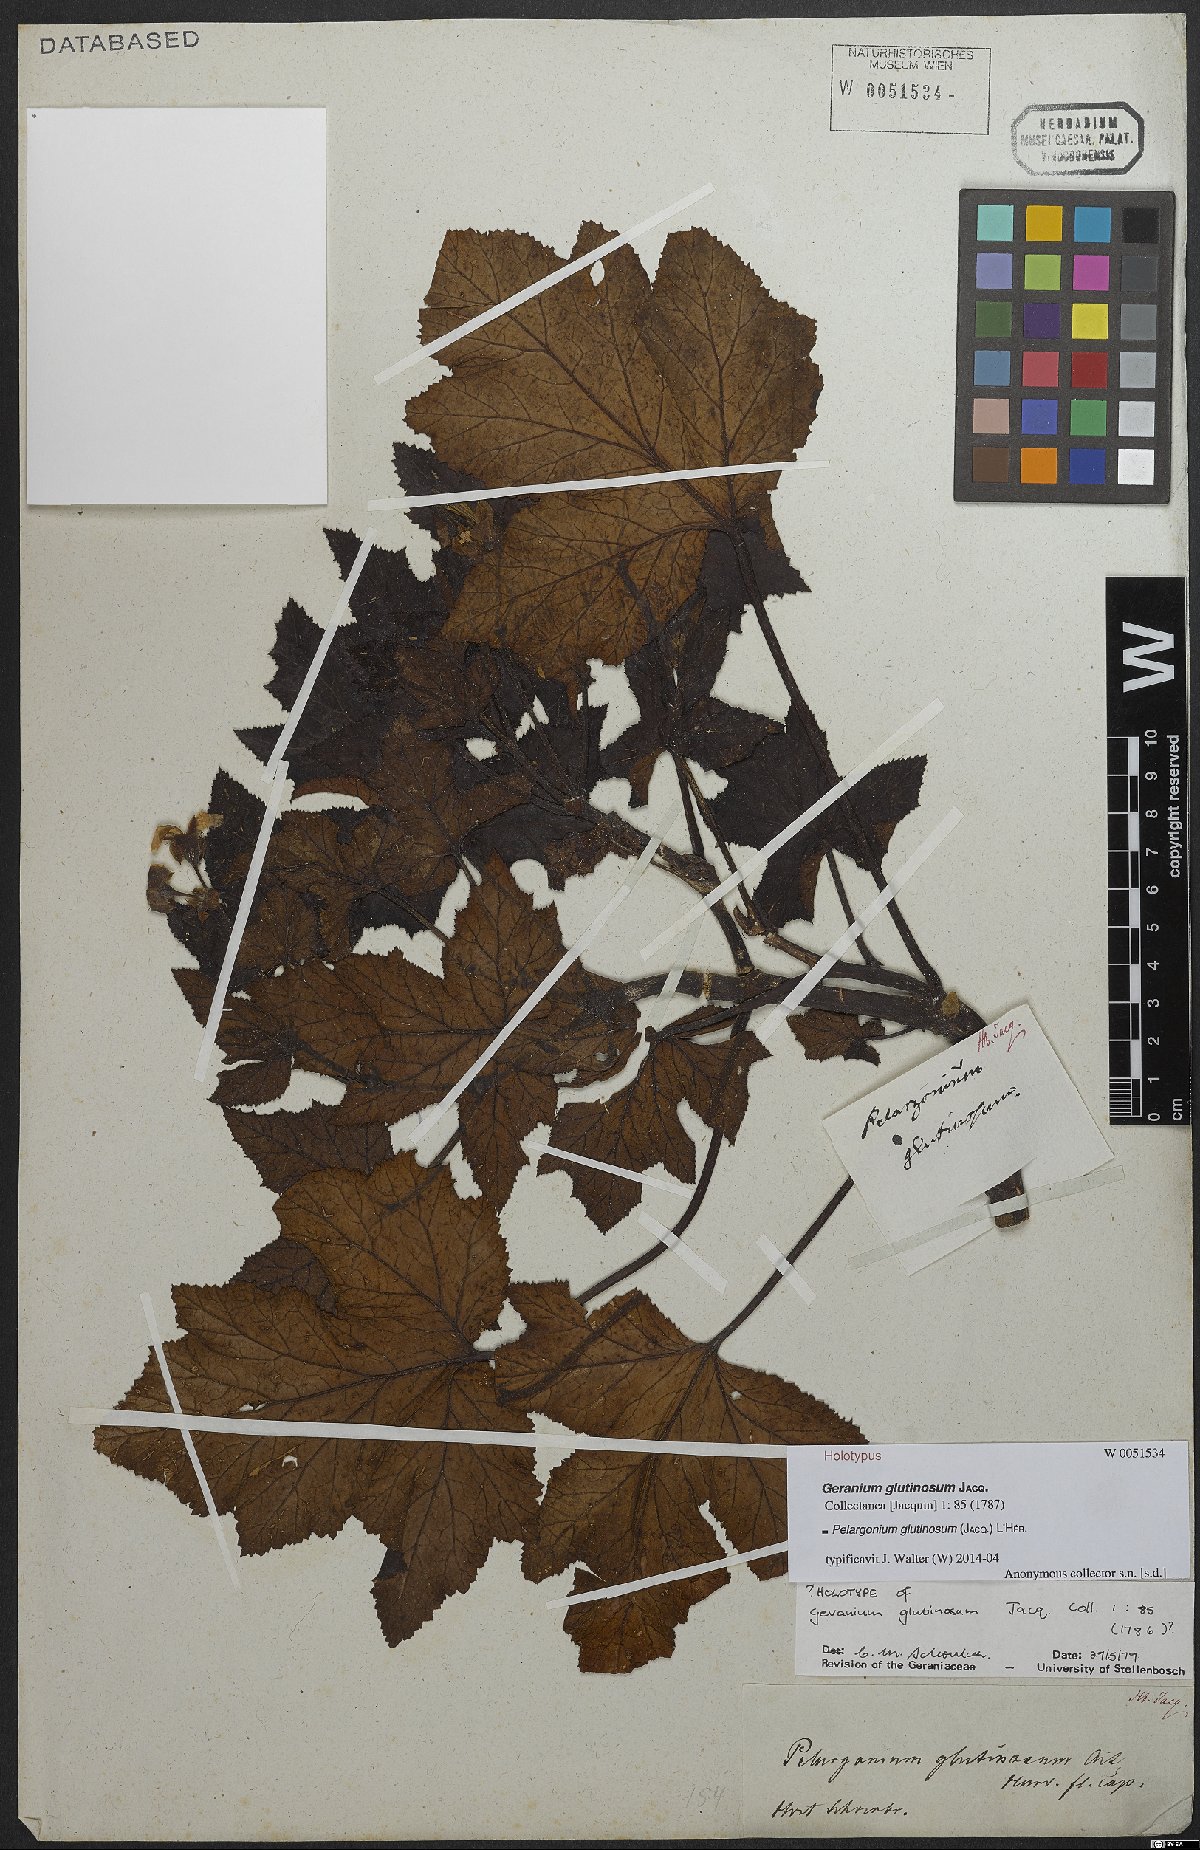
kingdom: Plantae
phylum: Tracheophyta
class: Magnoliopsida
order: Geraniales
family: Geraniaceae
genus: Pelargonium
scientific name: Pelargonium glutinosum
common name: Pheasant-foot geranium
